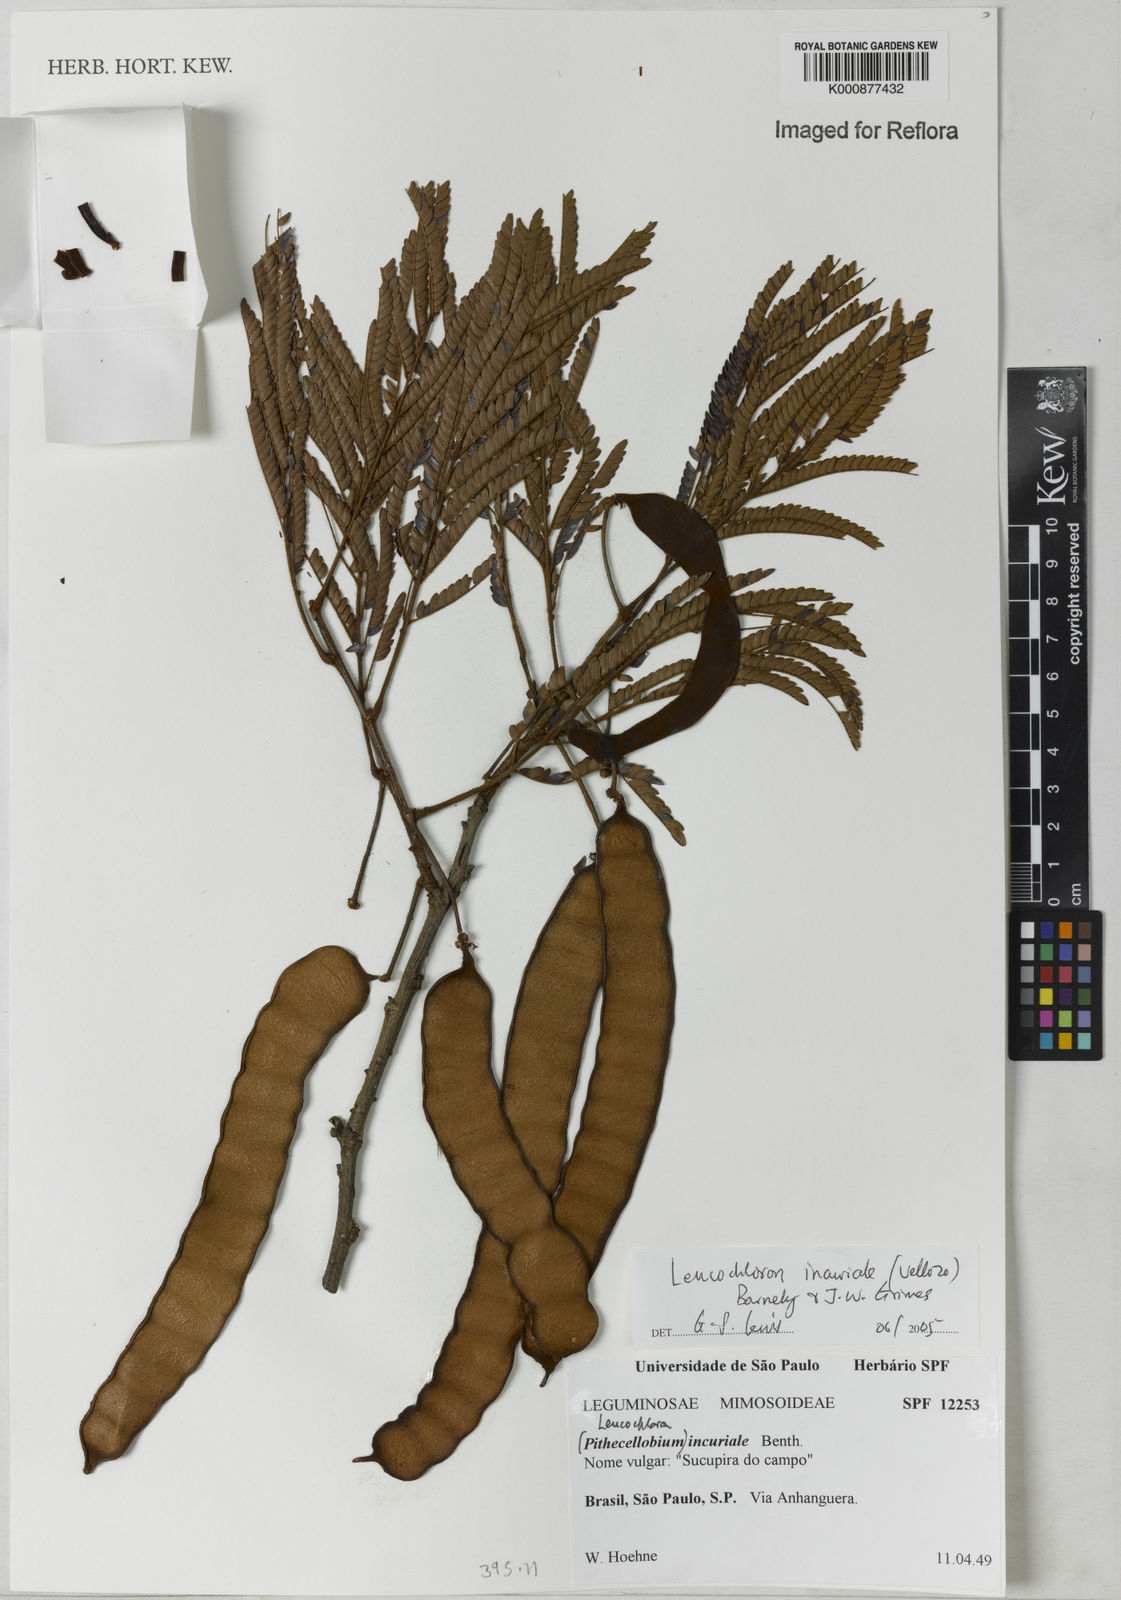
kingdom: Plantae
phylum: Tracheophyta
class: Magnoliopsida
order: Fabales
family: Fabaceae
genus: Leucochloron
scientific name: Leucochloron incuriale
